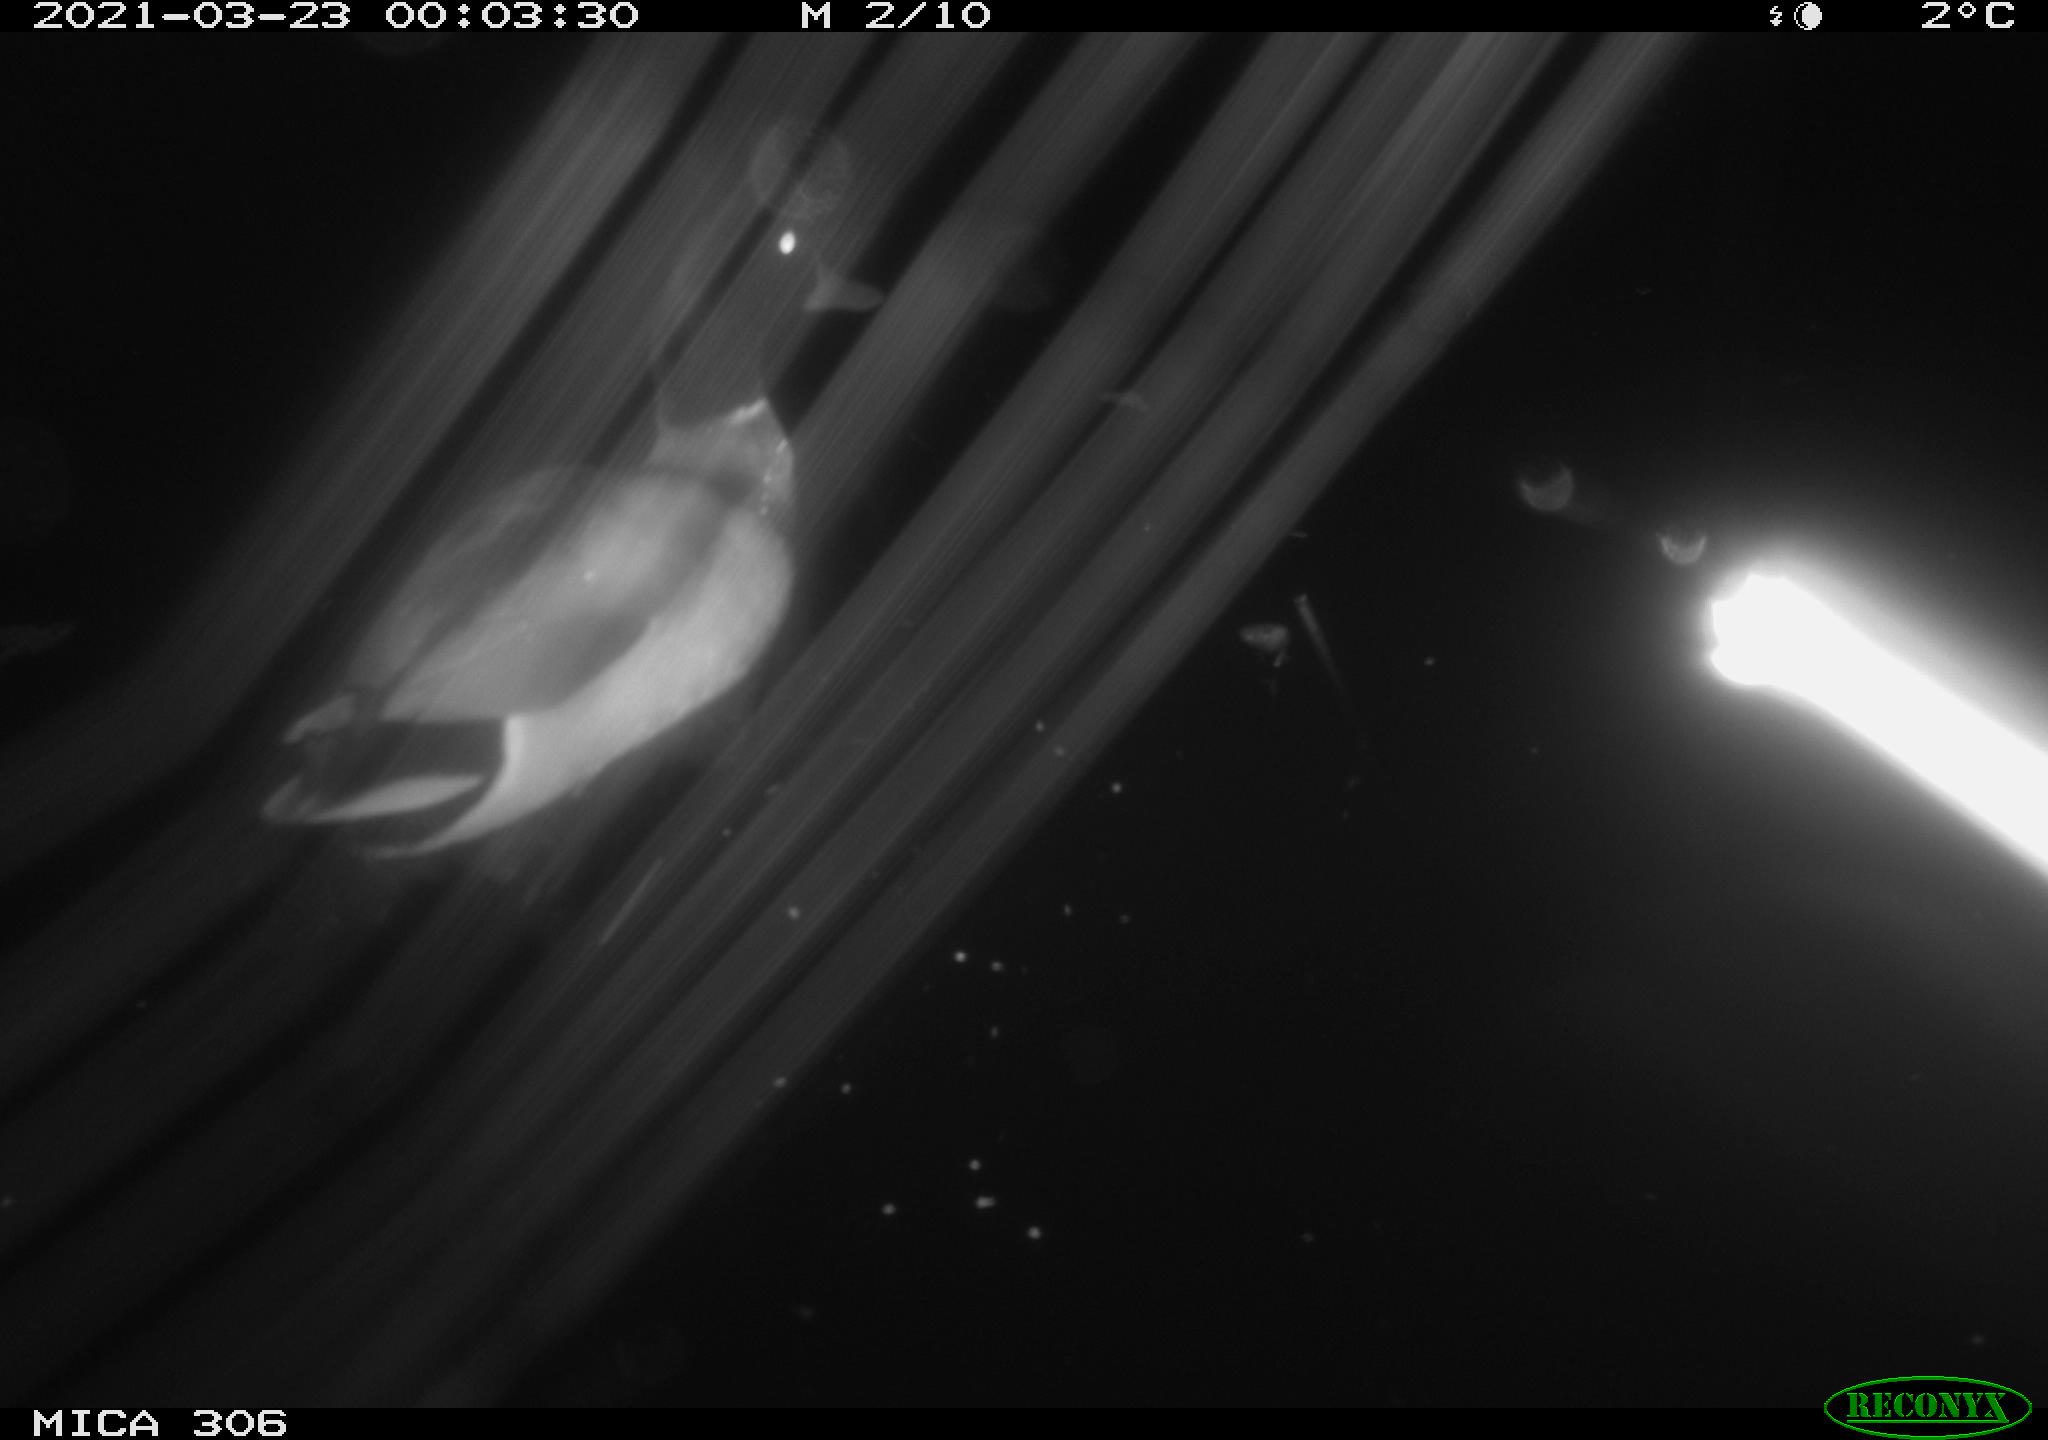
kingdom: Animalia
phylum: Chordata
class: Aves
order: Anseriformes
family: Anatidae
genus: Anas
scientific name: Anas platyrhynchos
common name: Mallard
